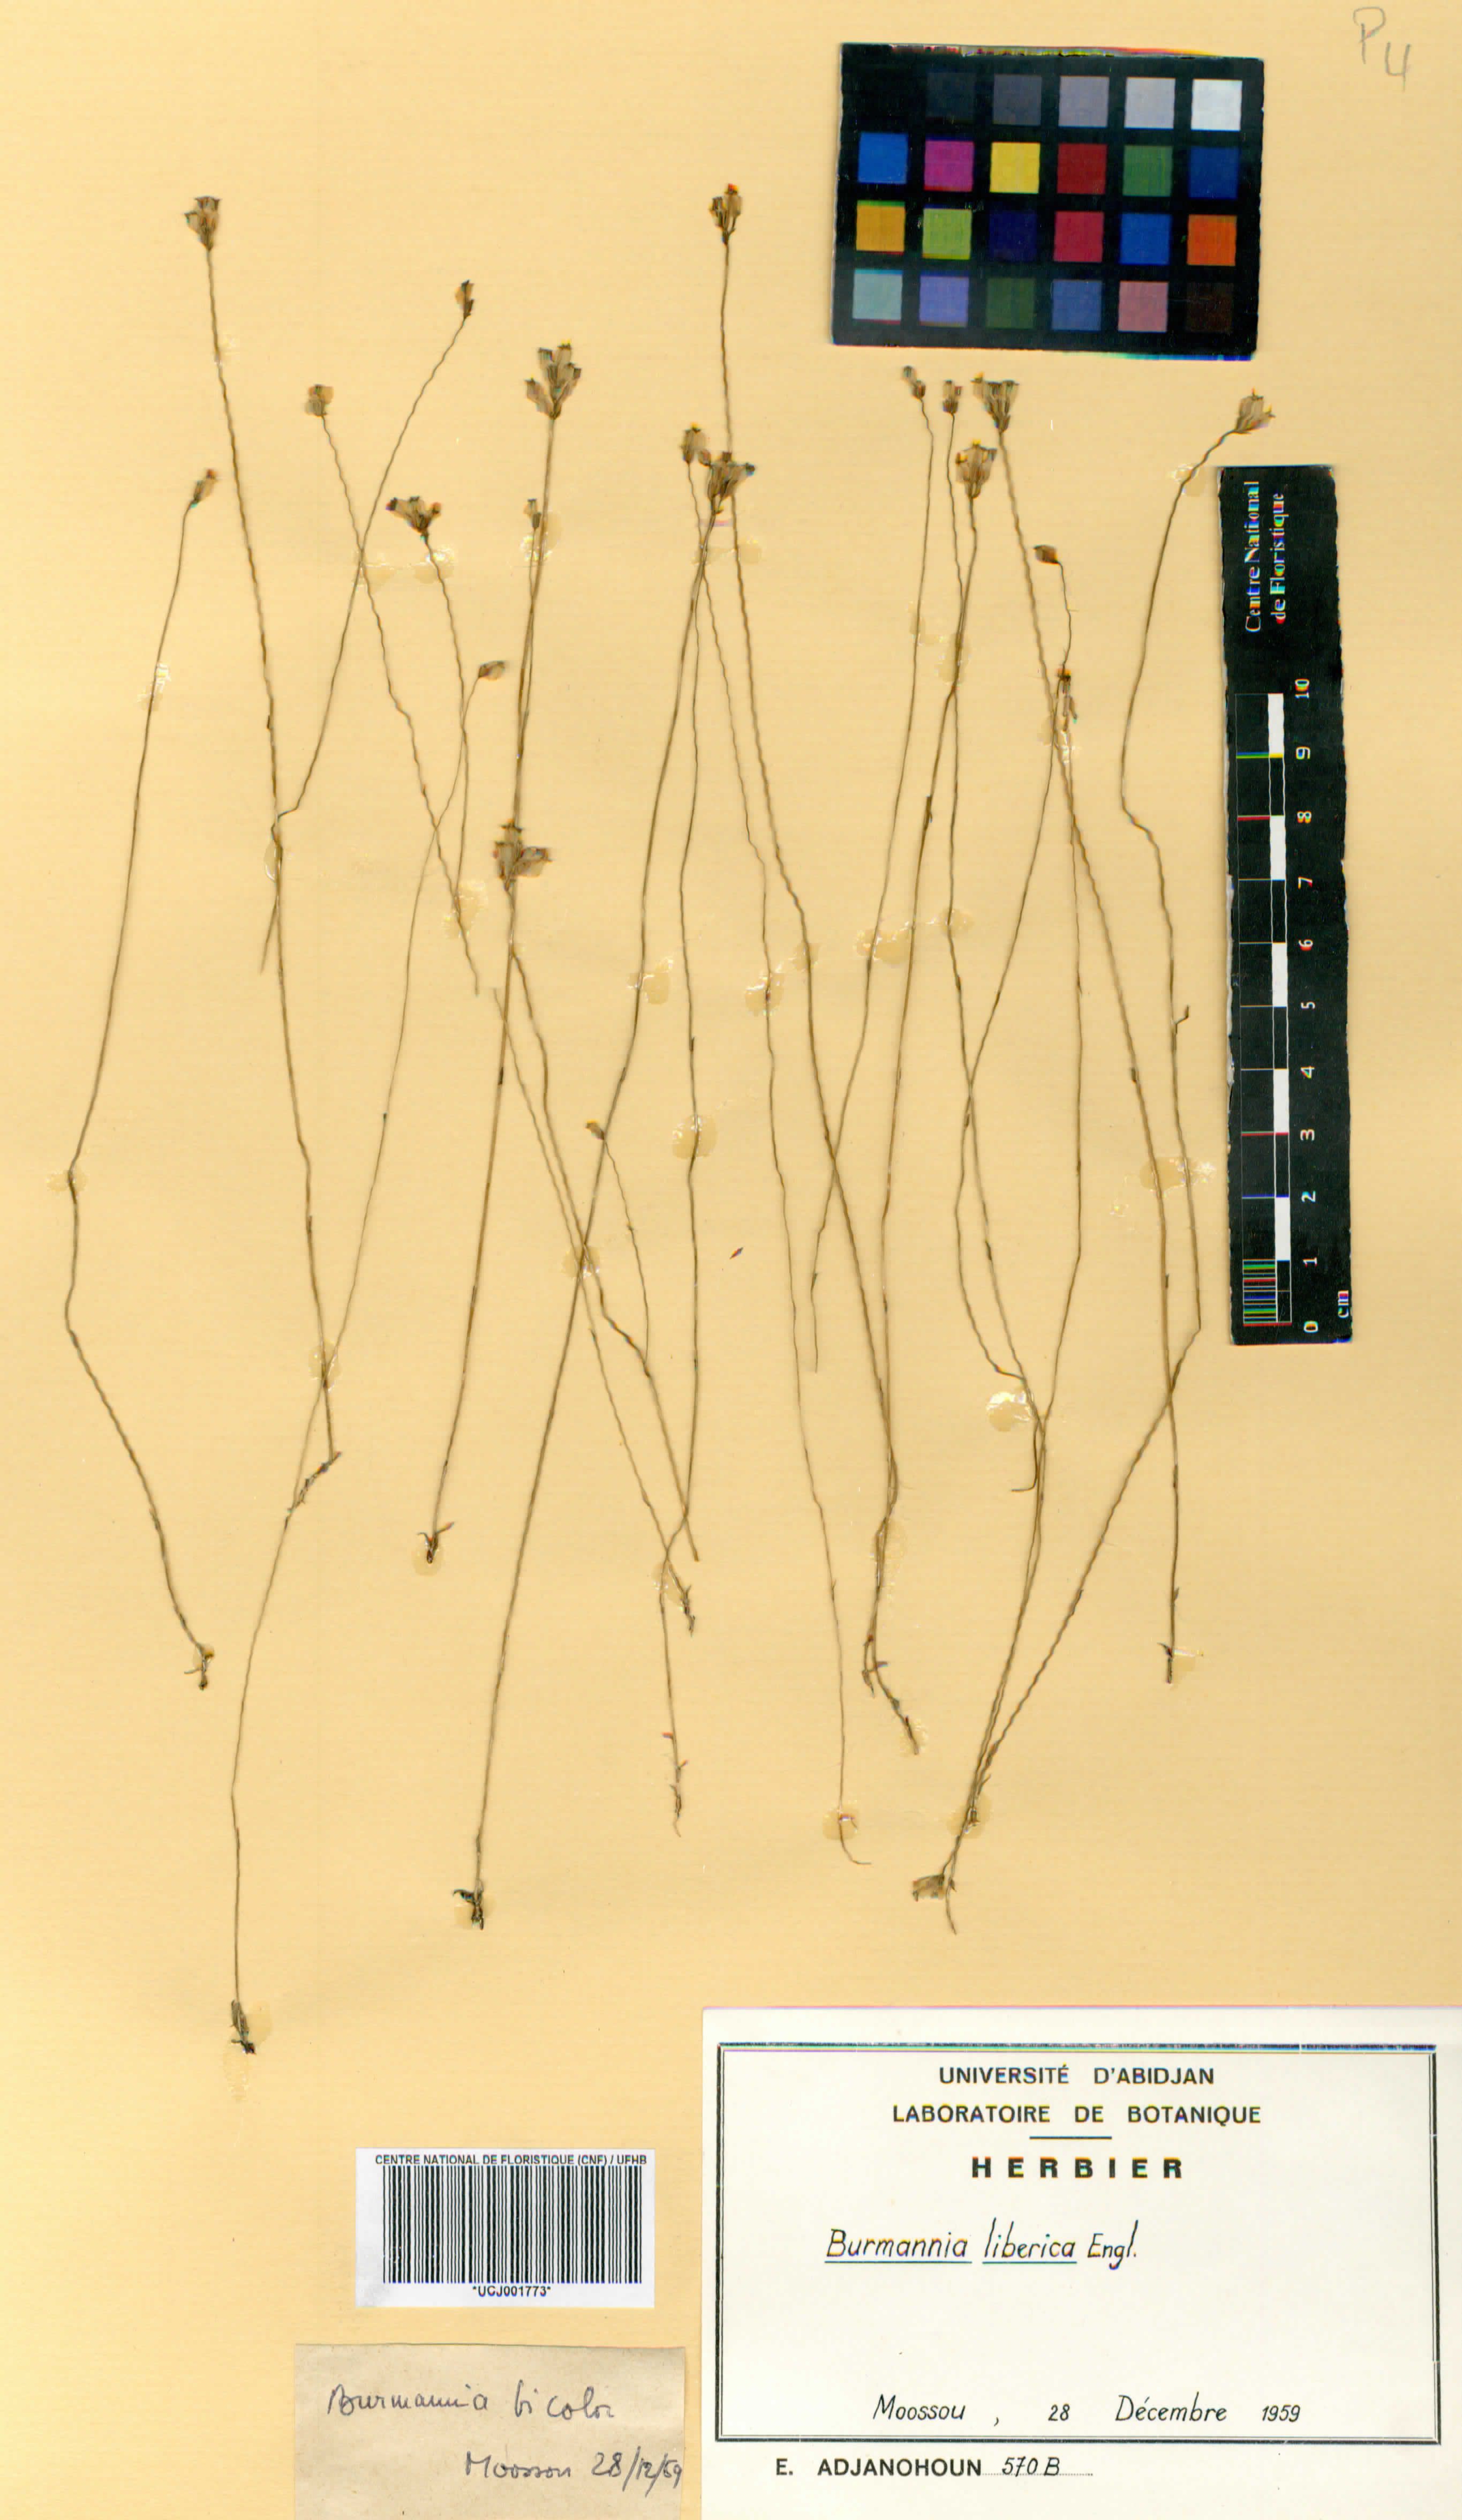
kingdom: Plantae
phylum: Tracheophyta
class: Liliopsida
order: Dioscoreales
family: Burmanniaceae
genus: Burmannia
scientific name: Burmannia latialata
